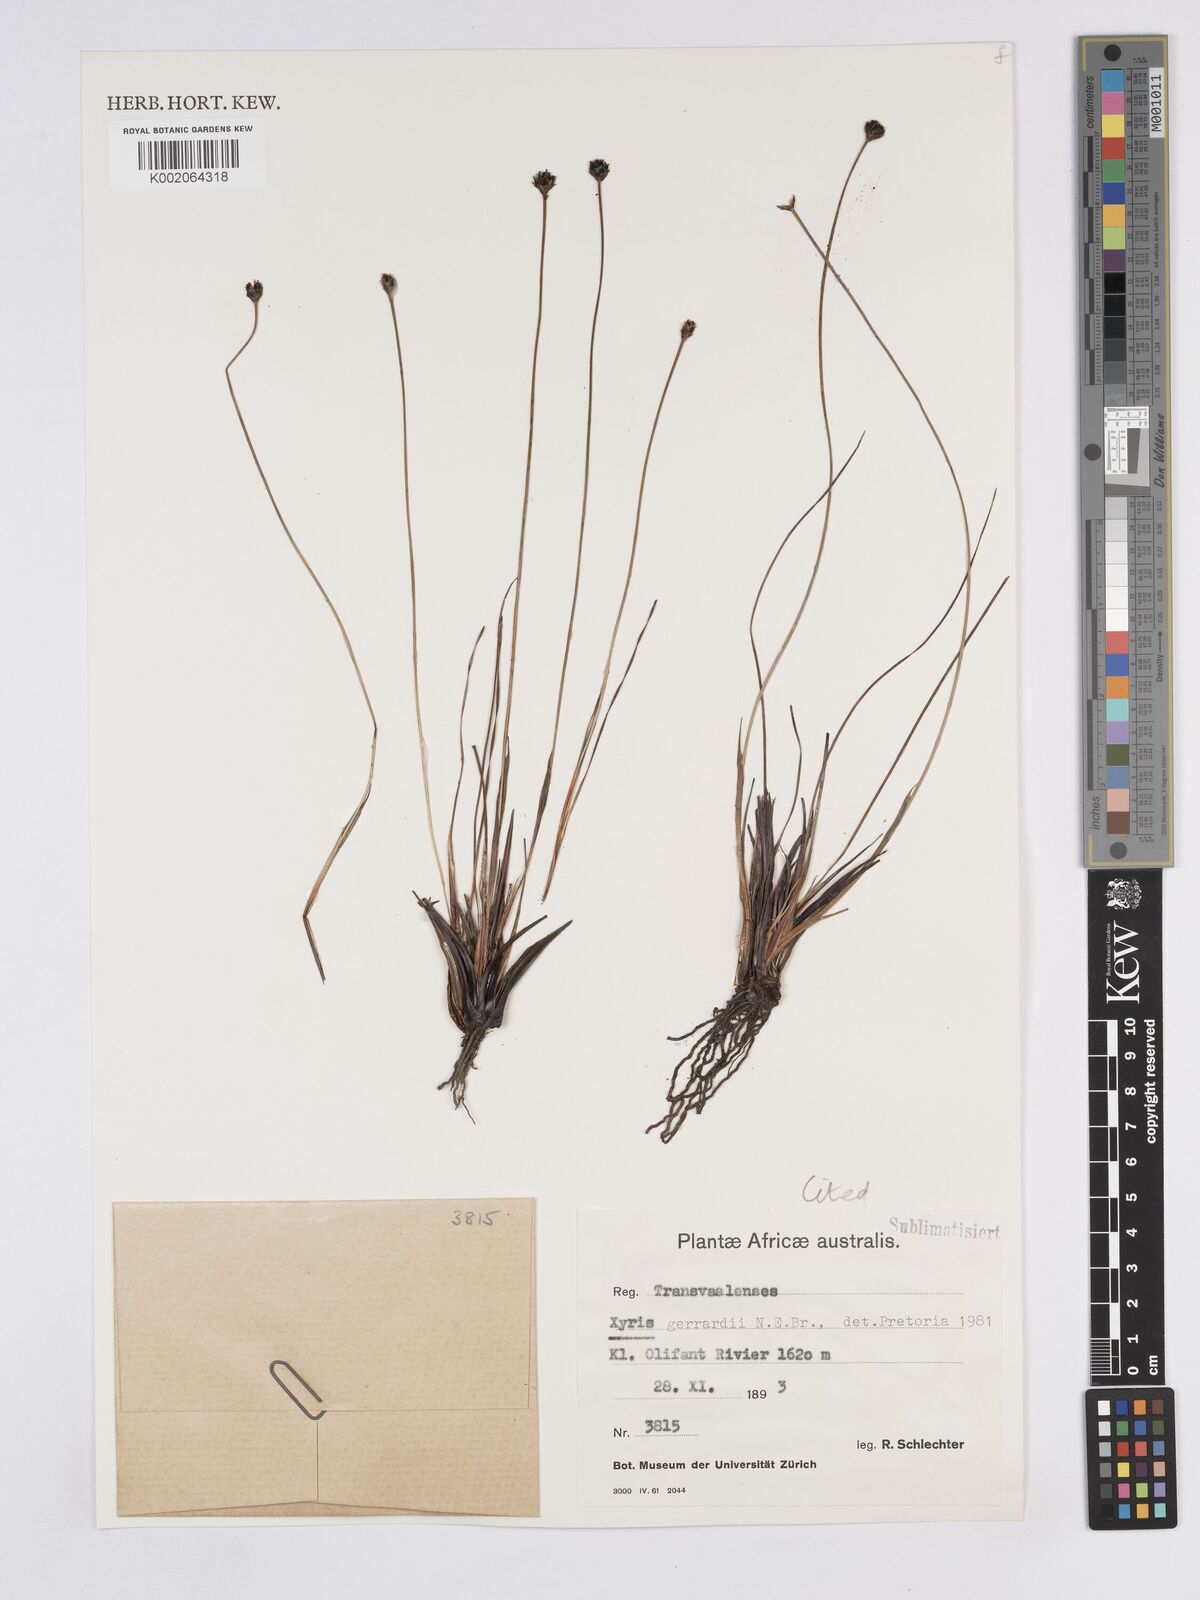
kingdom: Plantae
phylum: Tracheophyta
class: Liliopsida
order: Poales
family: Xyridaceae
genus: Xyris
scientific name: Xyris gerrardii
